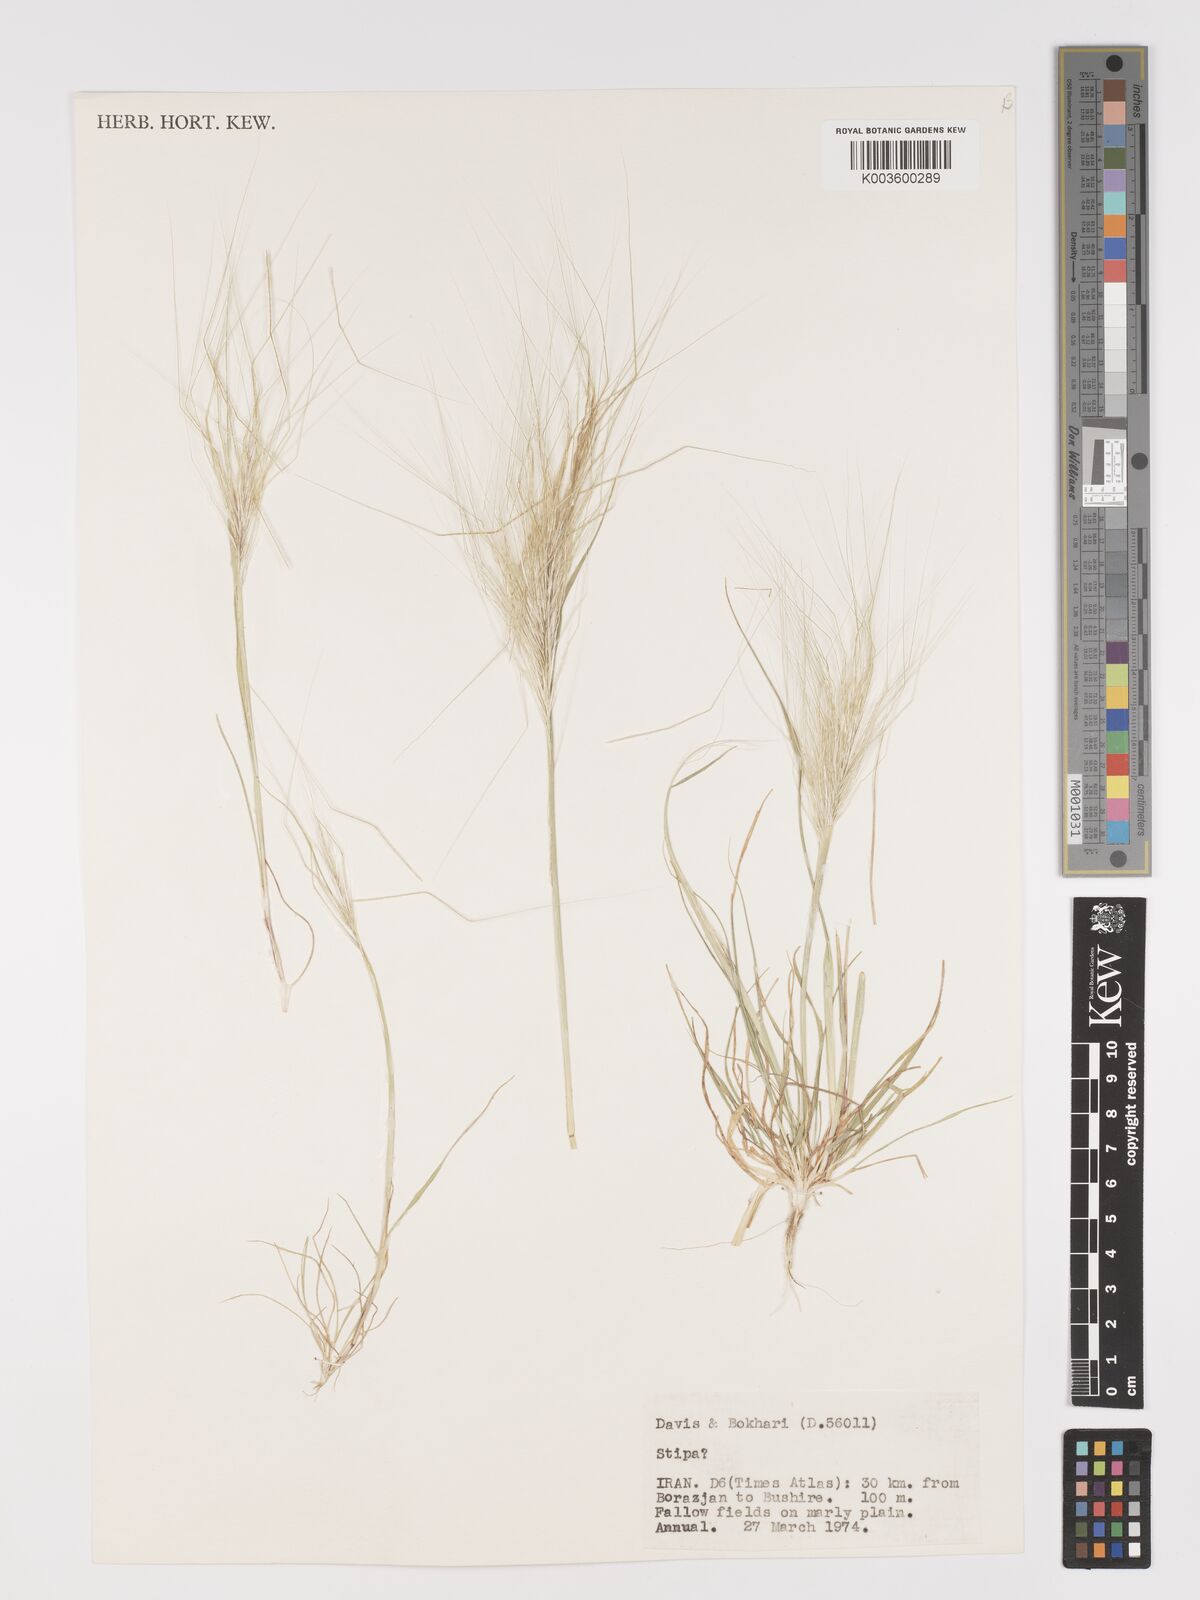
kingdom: Plantae
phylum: Tracheophyta
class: Liliopsida
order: Poales
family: Poaceae
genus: Stipellula
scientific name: Stipellula capensis
